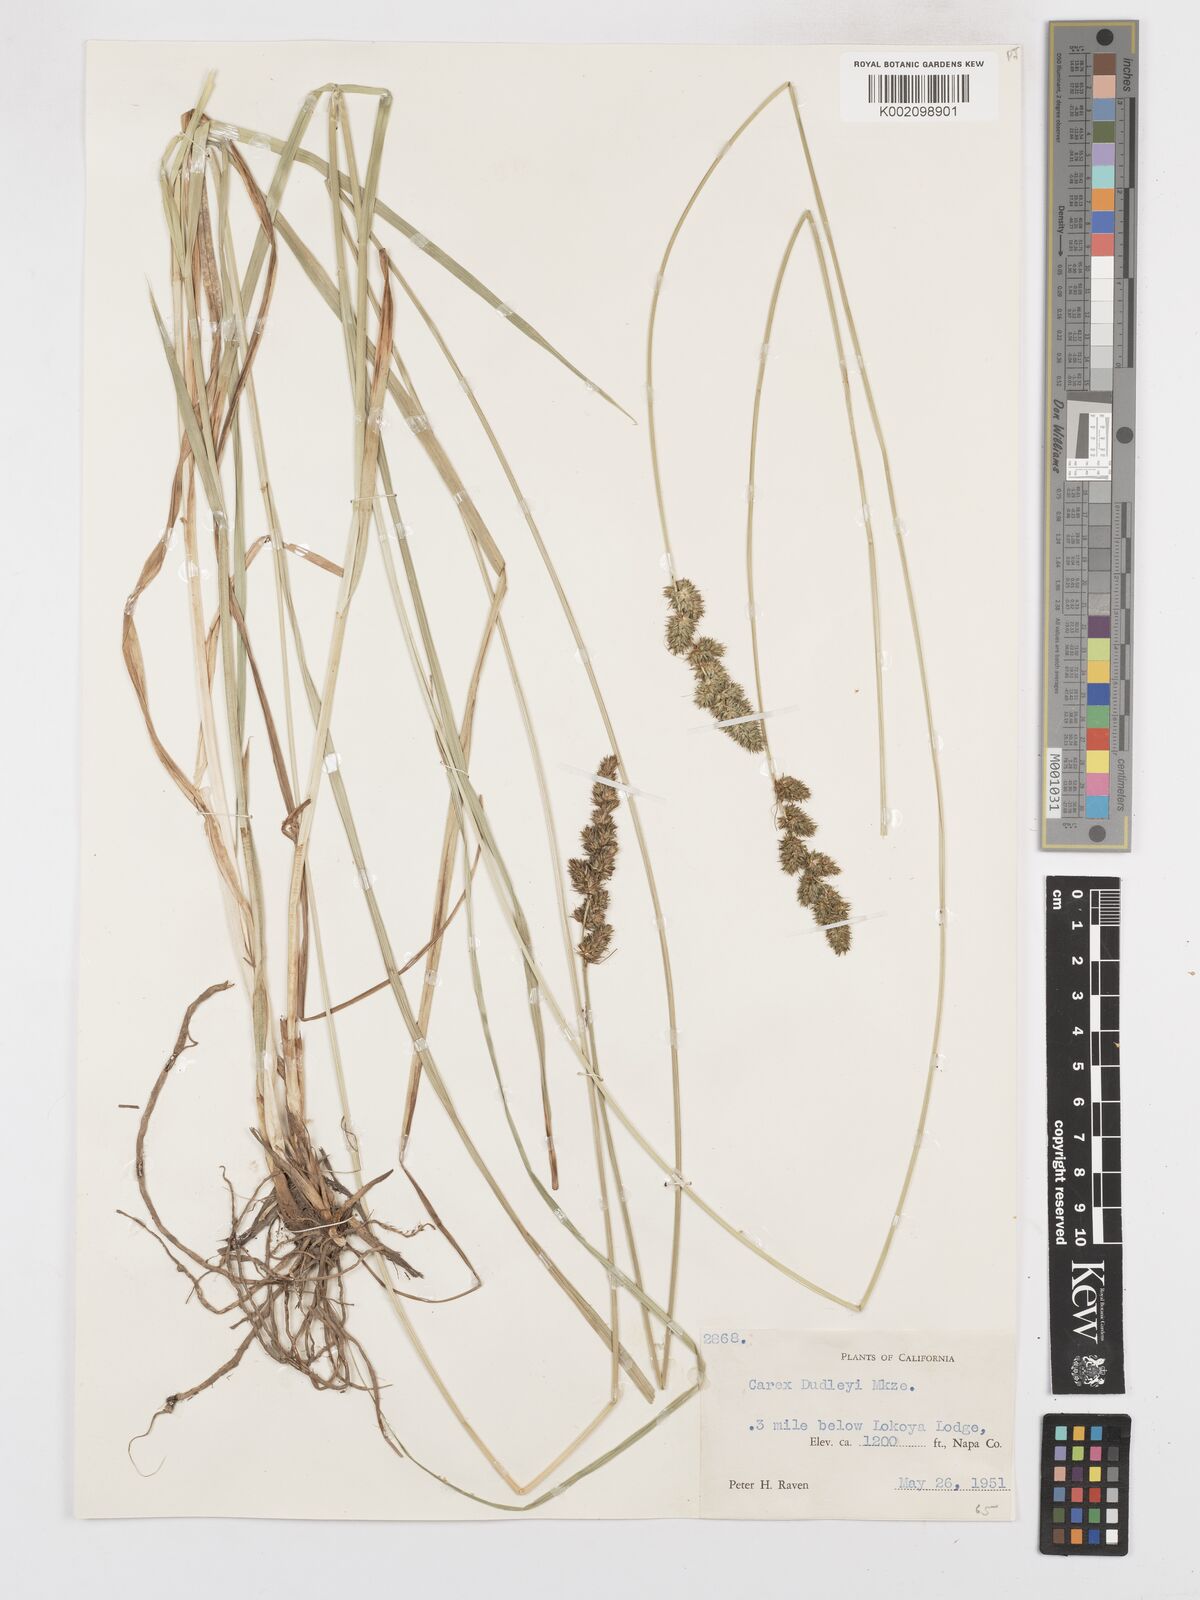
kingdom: Plantae
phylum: Tracheophyta
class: Liliopsida
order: Poales
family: Cyperaceae
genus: Carex
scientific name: Carex densa
